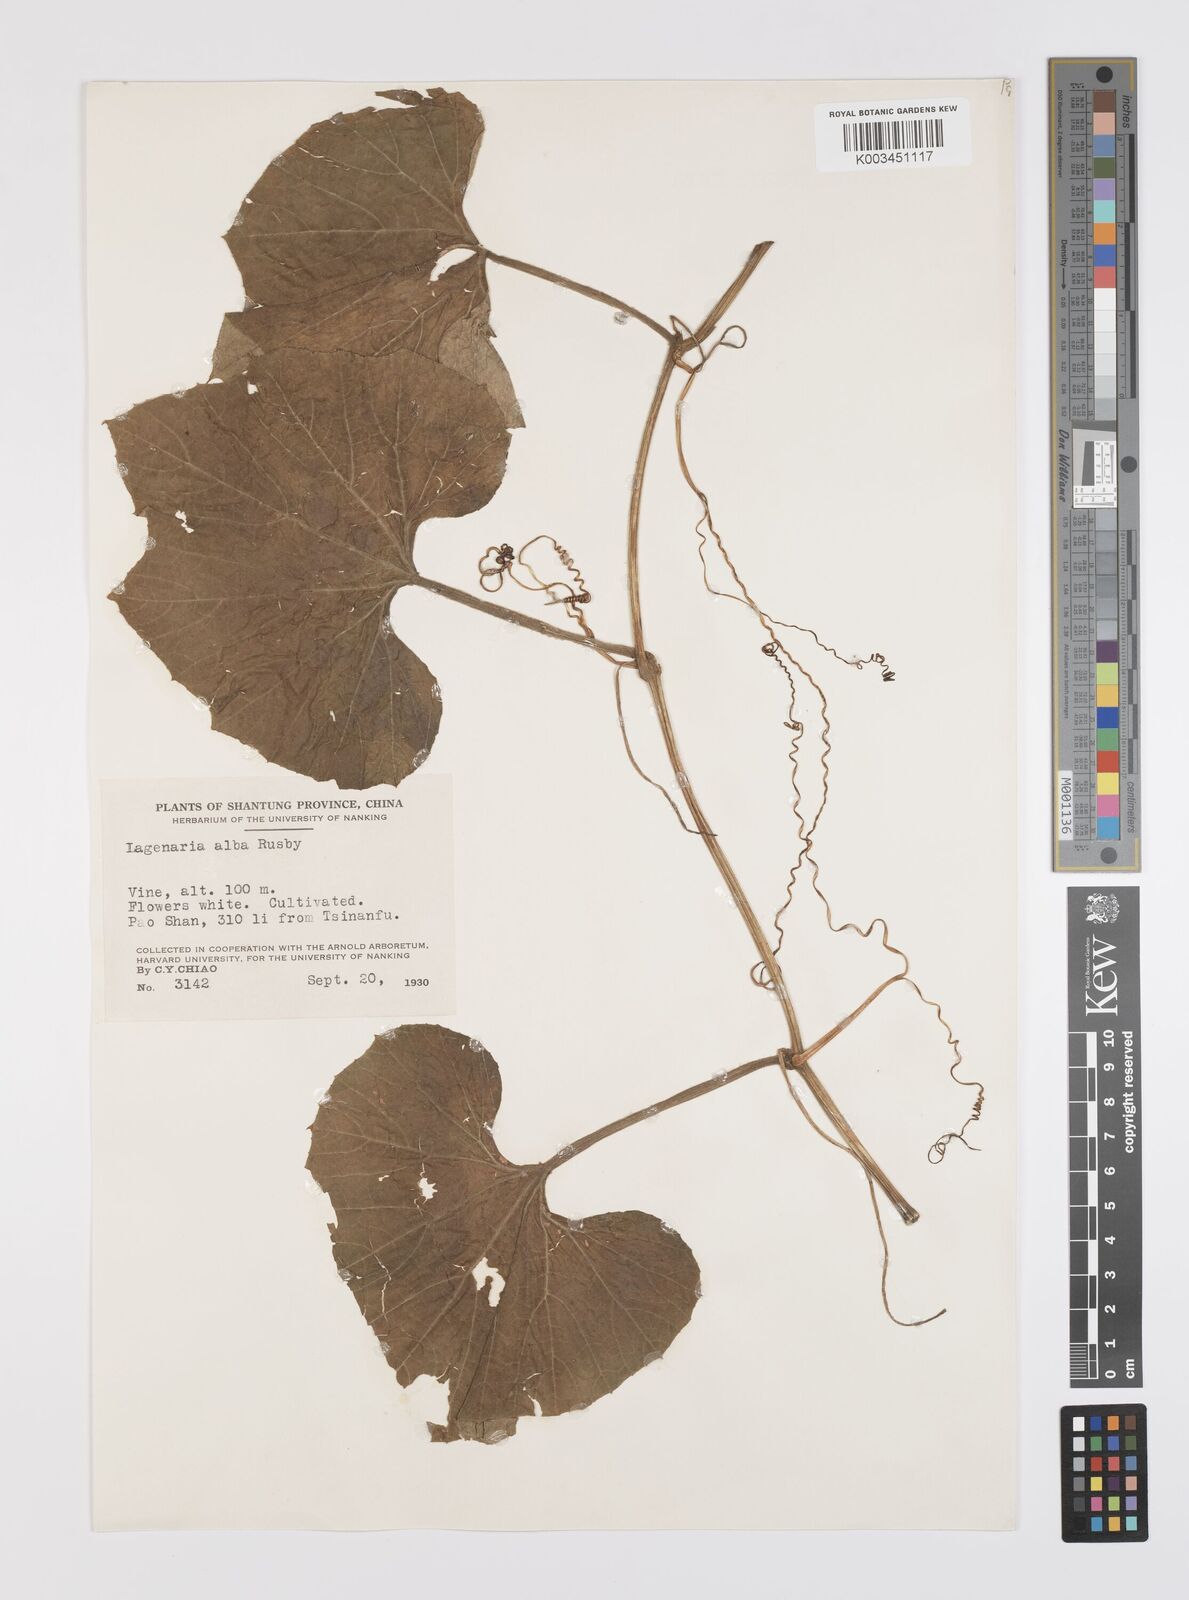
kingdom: Plantae
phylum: Tracheophyta
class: Magnoliopsida
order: Cucurbitales
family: Cucurbitaceae
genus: Lagenaria
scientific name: Lagenaria
